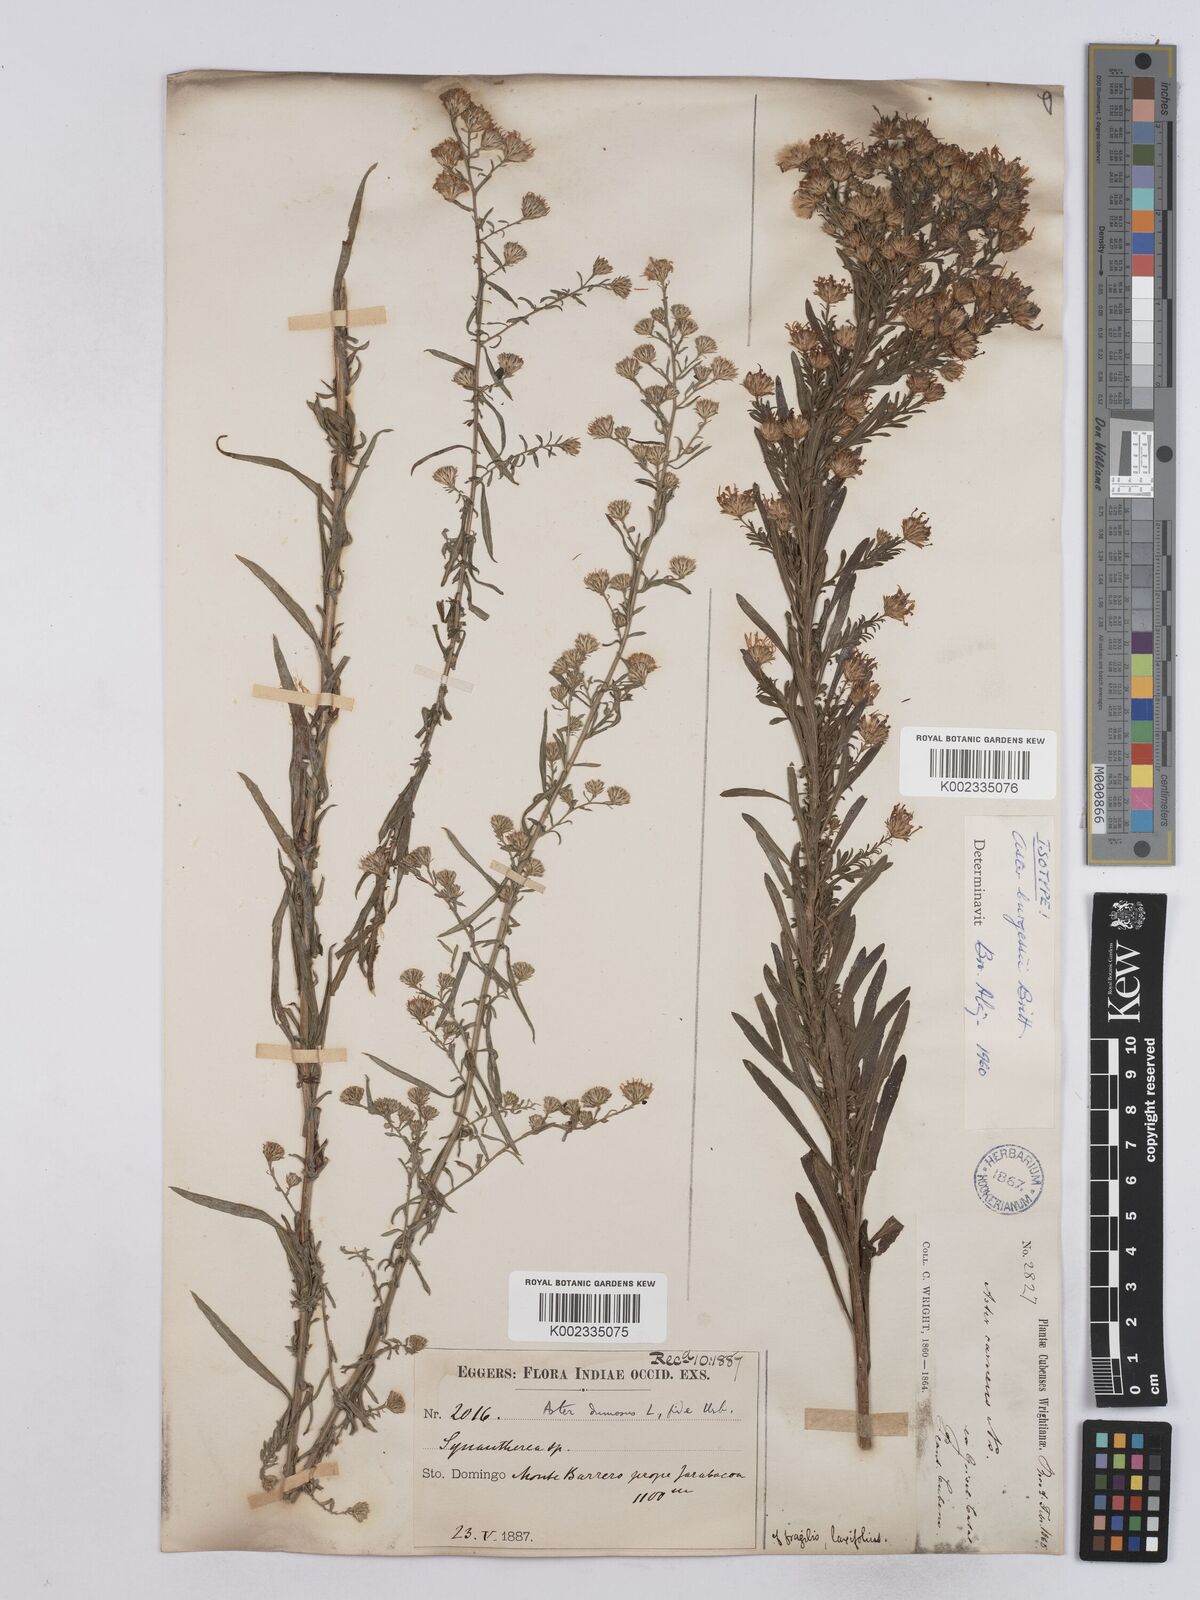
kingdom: Plantae
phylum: Tracheophyta
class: Magnoliopsida
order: Asterales
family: Asteraceae
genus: Symphyotrichum
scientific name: Symphyotrichum dumosum
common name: Bushy aster
